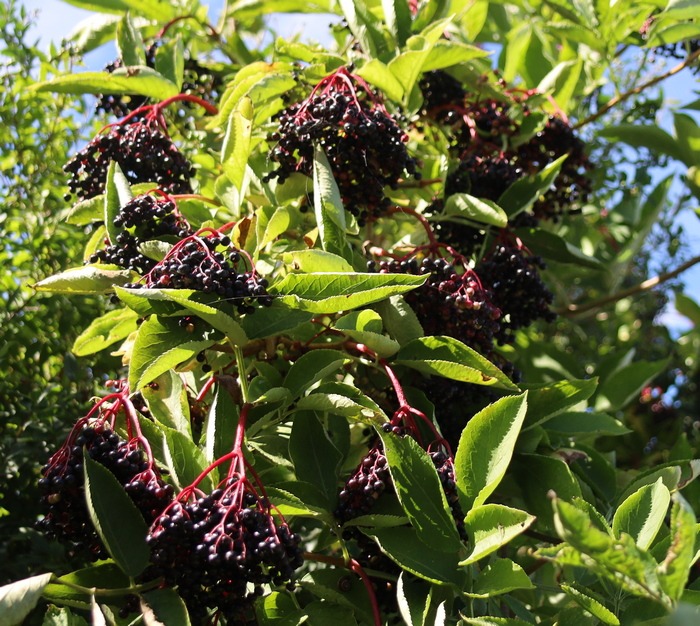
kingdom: Plantae
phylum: Tracheophyta
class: Magnoliopsida
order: Dipsacales
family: Viburnaceae
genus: Sambucus
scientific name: Sambucus nigra
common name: Almindelig hyld
